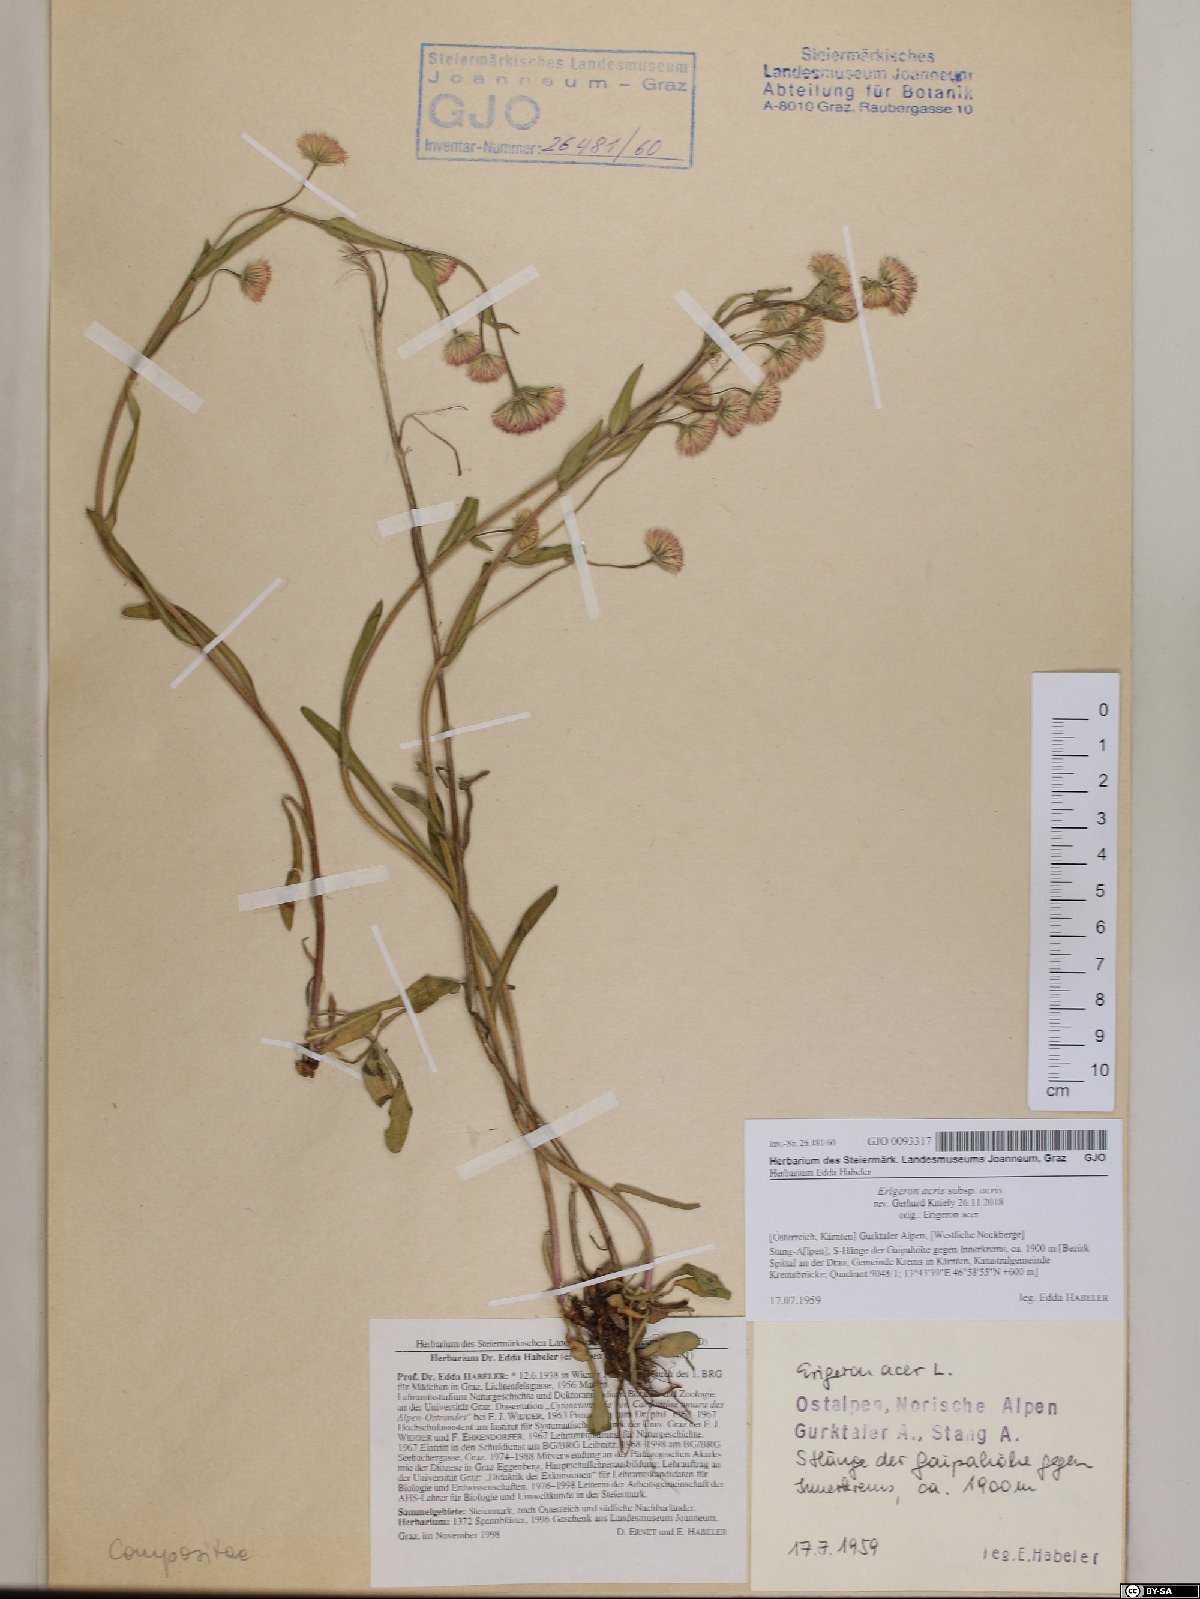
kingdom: Plantae
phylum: Tracheophyta
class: Magnoliopsida
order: Asterales
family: Asteraceae
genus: Erigeron
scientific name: Erigeron acris
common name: Blue fleabane
